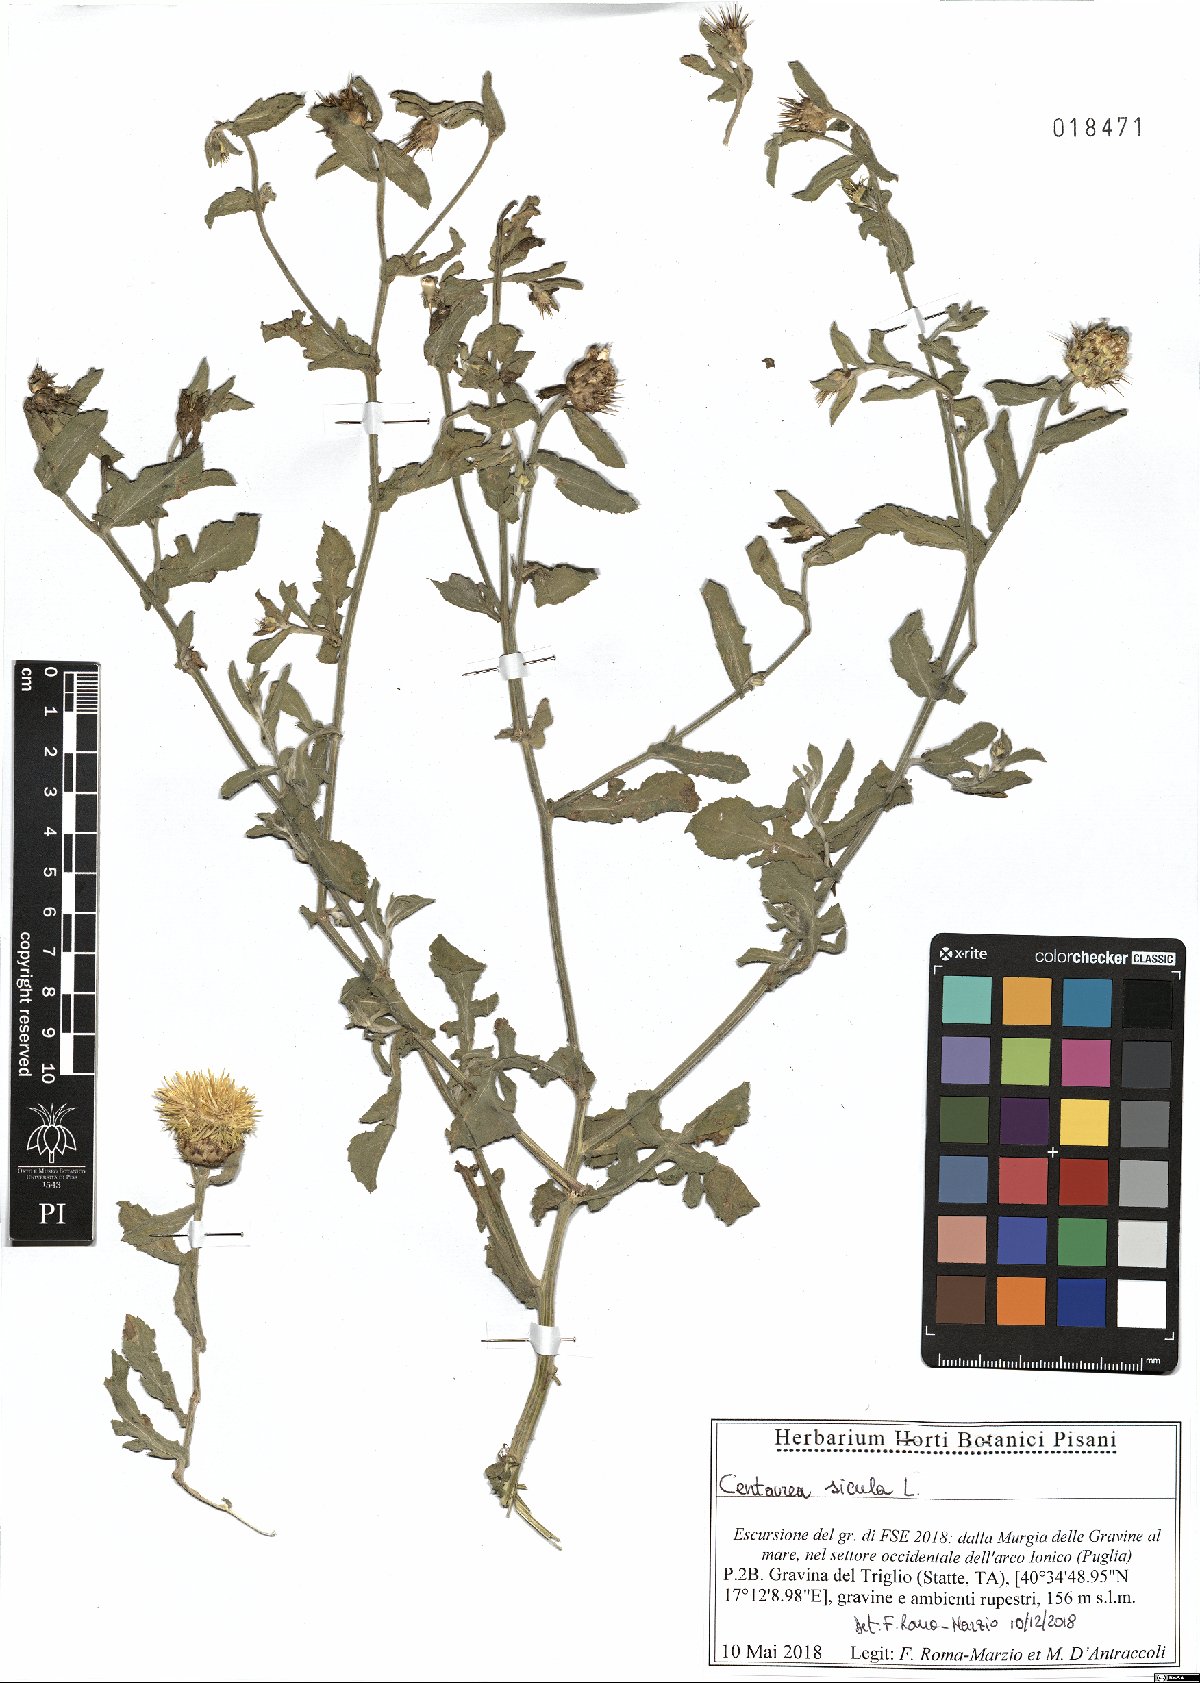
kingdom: Plantae
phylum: Tracheophyta
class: Magnoliopsida
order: Asterales
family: Asteraceae
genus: Centaurea
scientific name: Centaurea sicula
